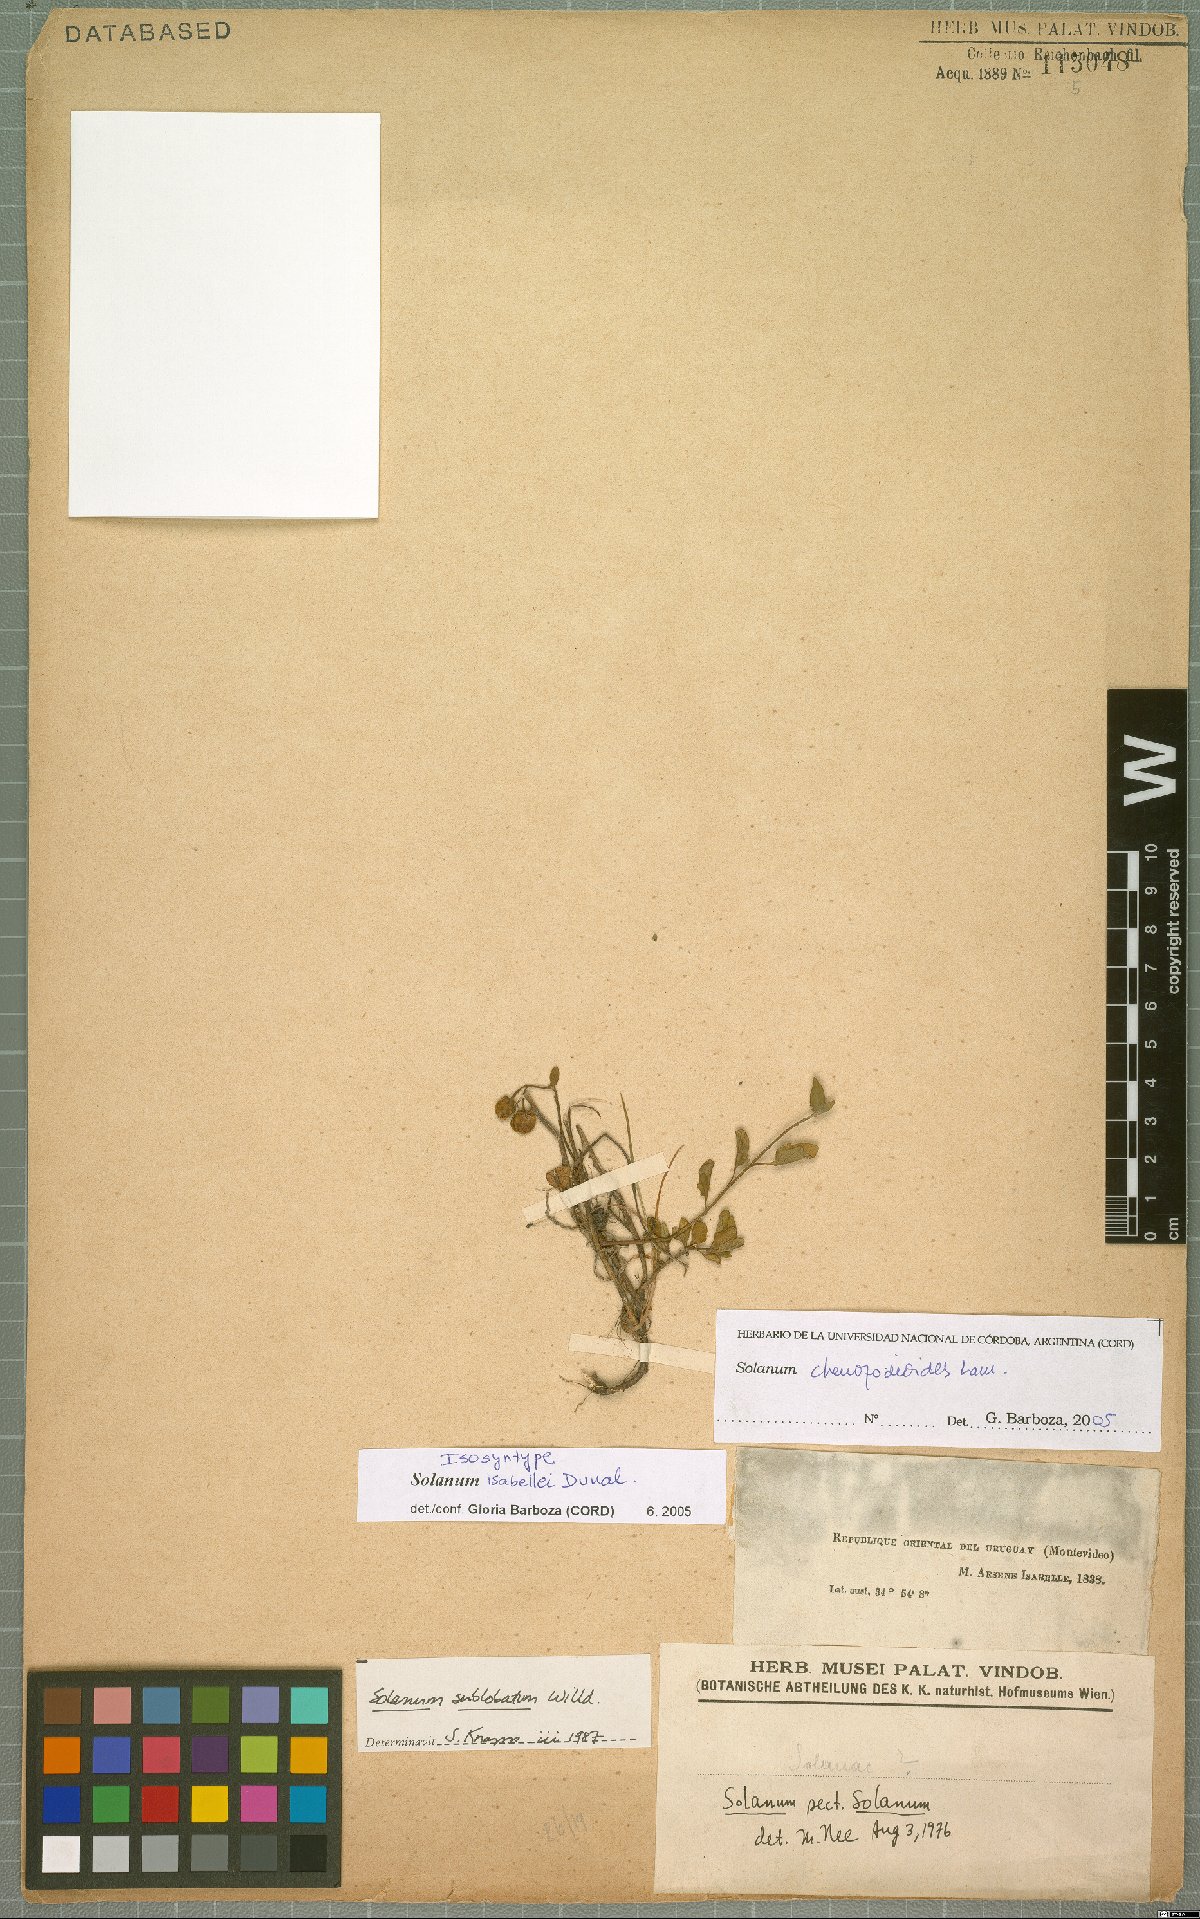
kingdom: Plantae
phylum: Tracheophyta
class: Magnoliopsida
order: Solanales
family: Solanaceae
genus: Solanum
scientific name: Solanum chenopodioides
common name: Tall nightshade
